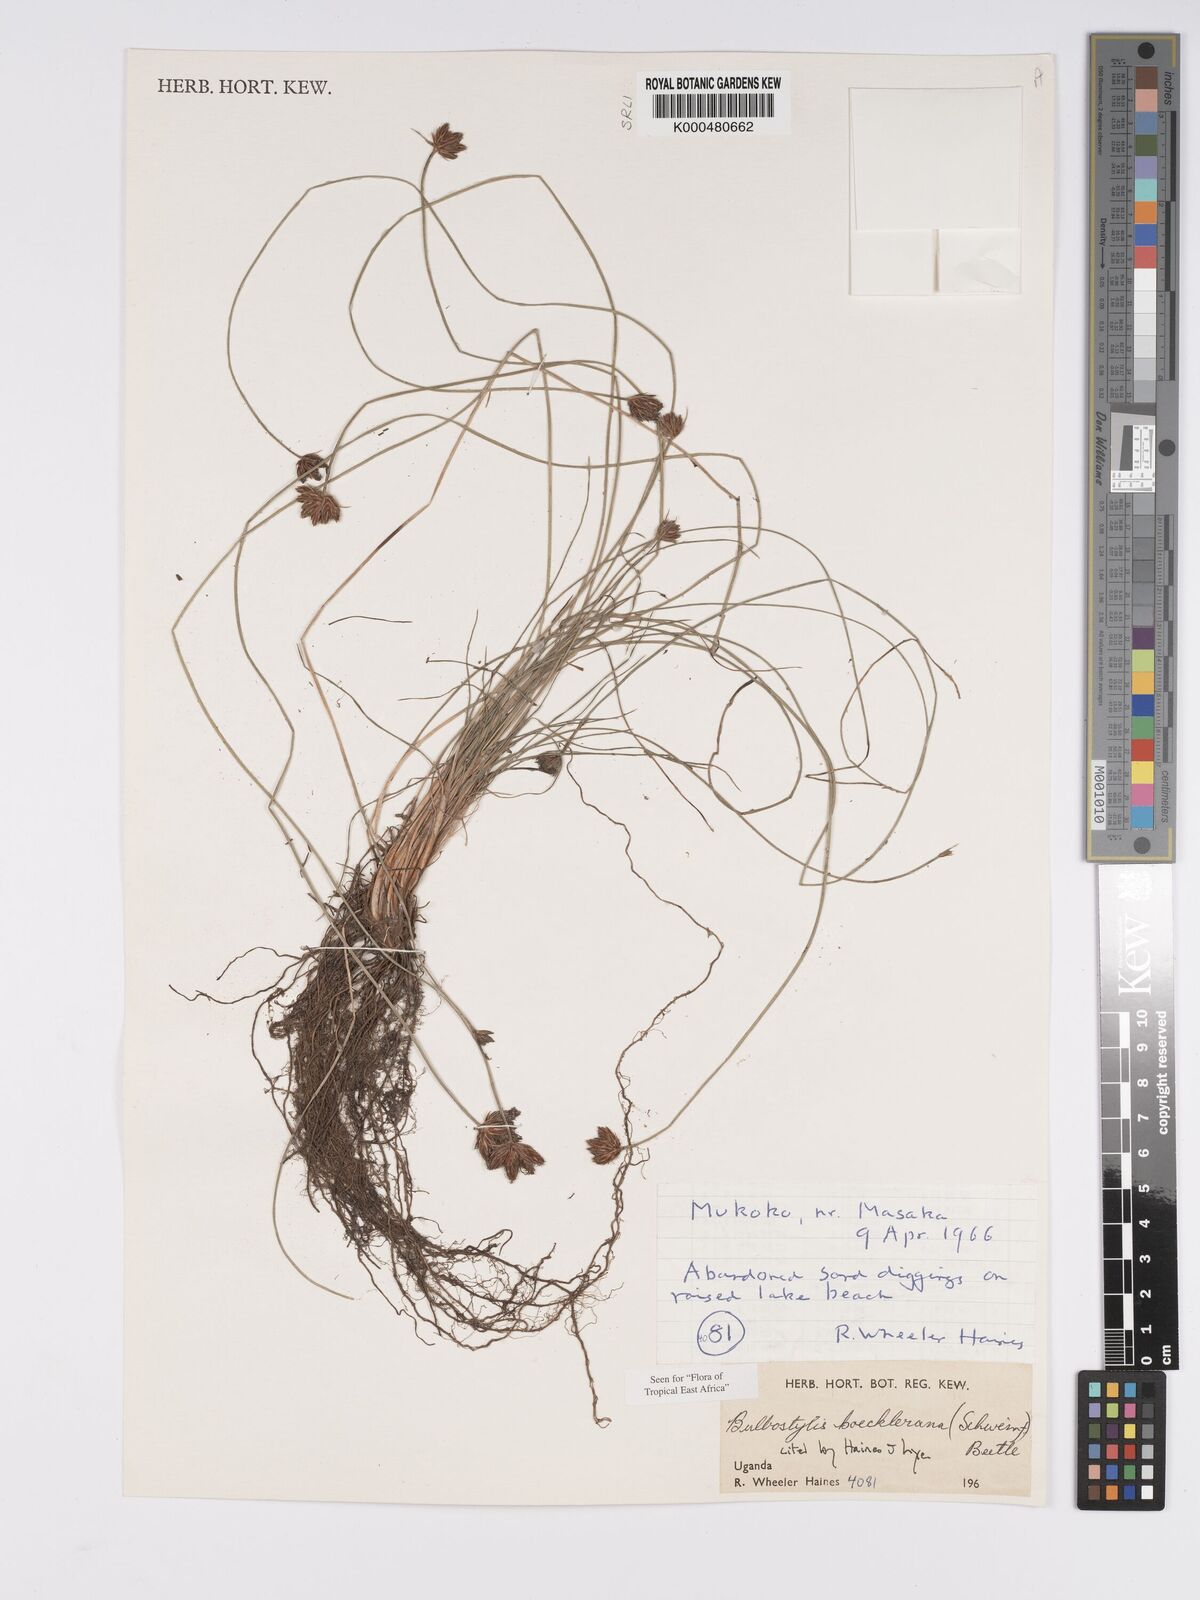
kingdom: Plantae
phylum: Tracheophyta
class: Liliopsida
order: Poales
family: Cyperaceae
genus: Bulbostylis
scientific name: Bulbostylis boeckeleriana
